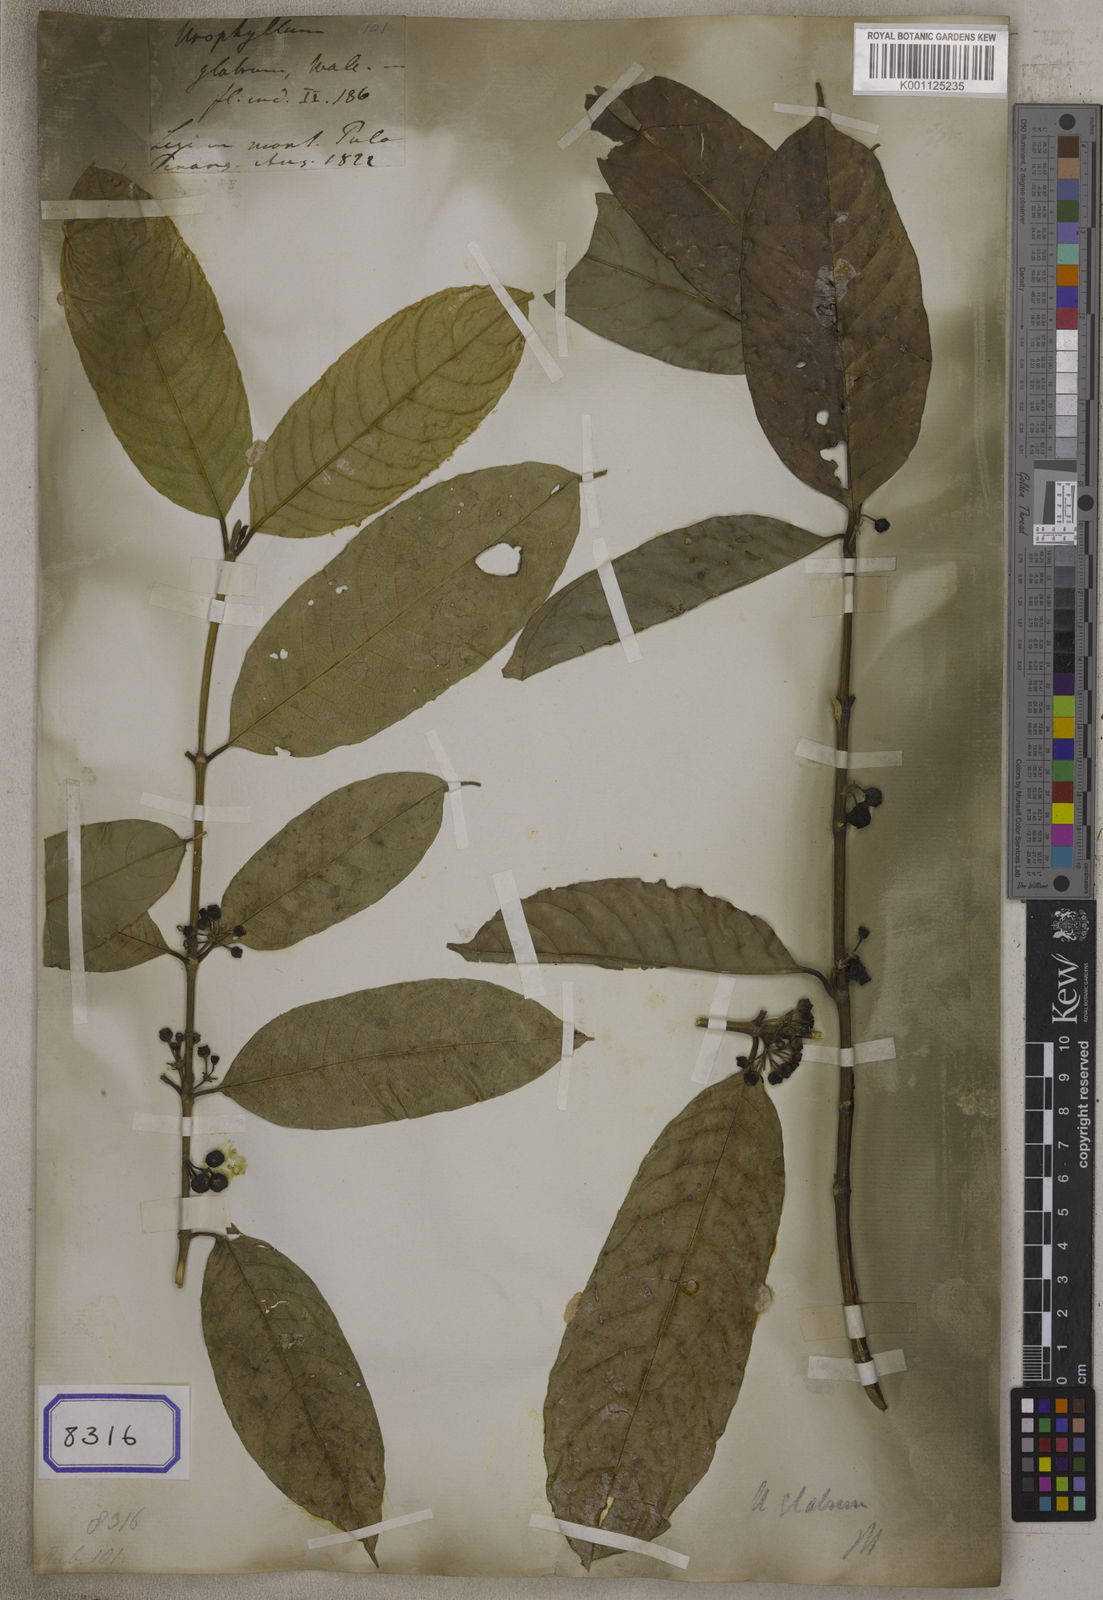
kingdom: Plantae
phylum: Tracheophyta
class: Magnoliopsida
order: Gentianales
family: Rubiaceae
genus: Urophyllum
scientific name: Urophyllum glabrum
